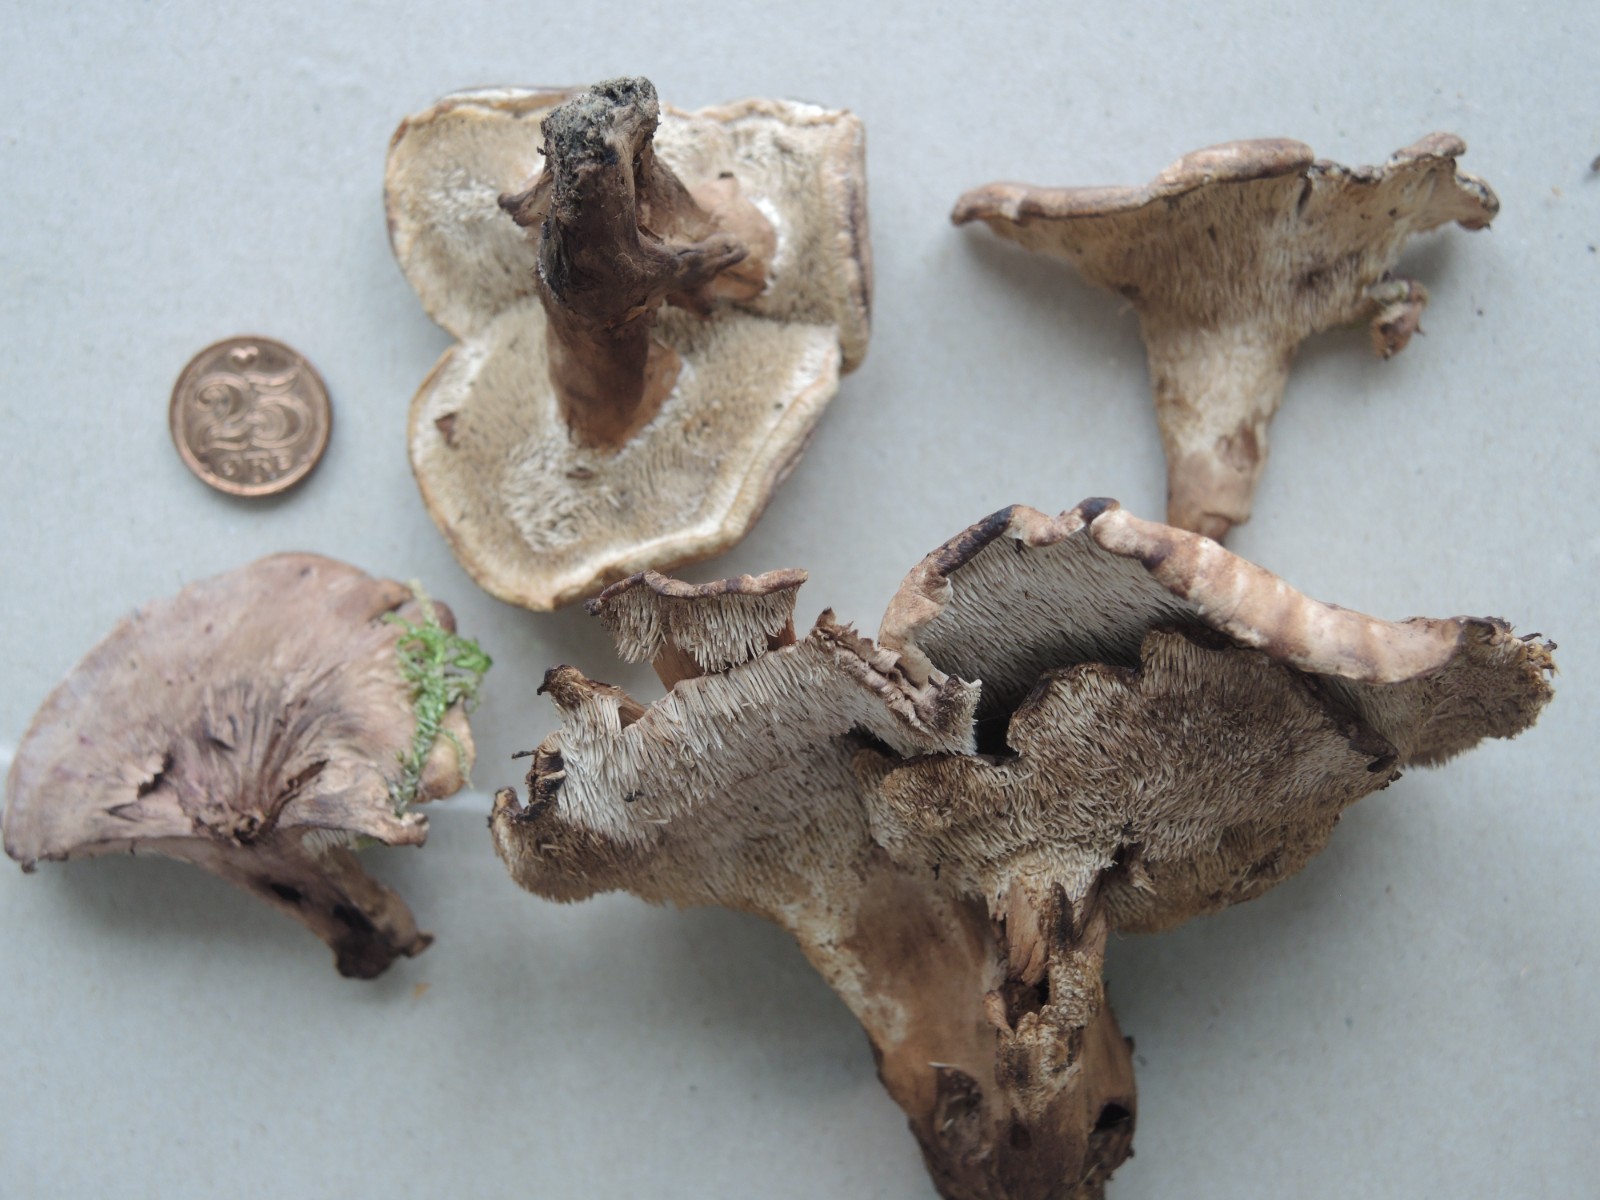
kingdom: Fungi
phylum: Basidiomycota
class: Agaricomycetes
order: Thelephorales
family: Thelephoraceae
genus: Phellodon
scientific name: Phellodon violascens
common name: violetbrun duftpigsvamp
